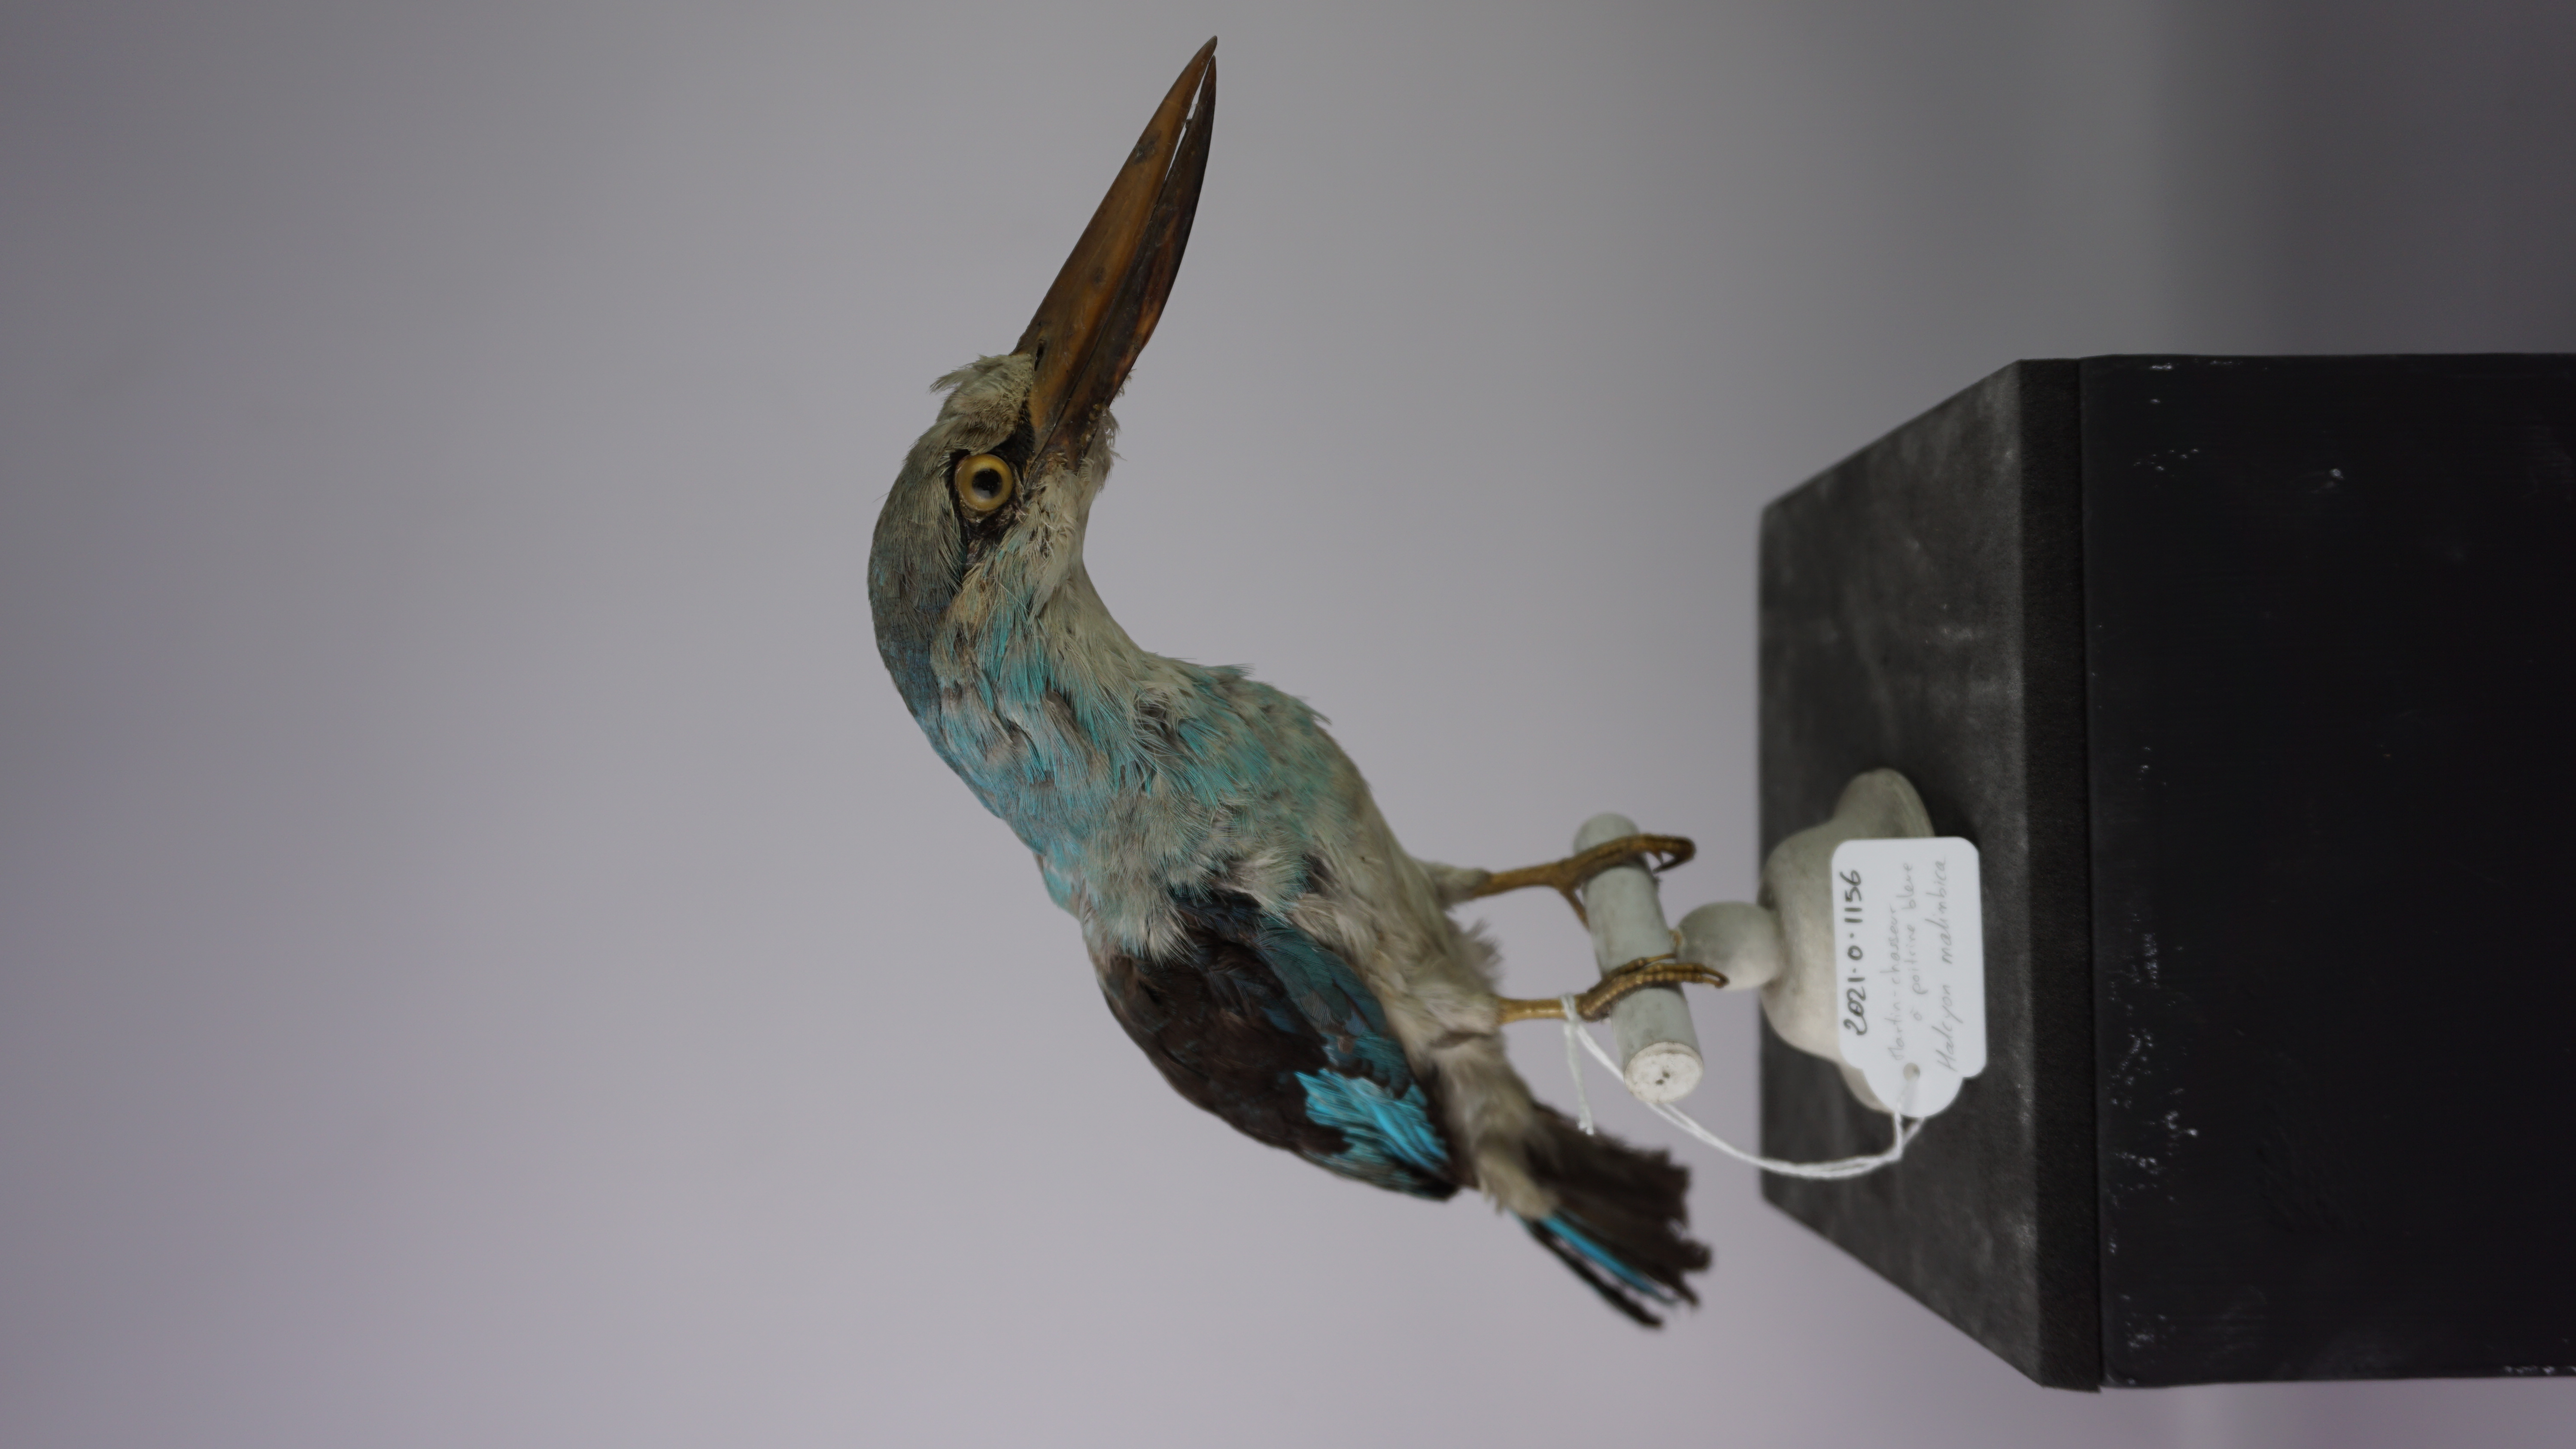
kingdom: Animalia
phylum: Chordata
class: Aves
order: Coraciiformes
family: Alcedinidae
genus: Halcyon
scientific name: Halcyon malimbica
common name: Blue-breasted kingfisher
